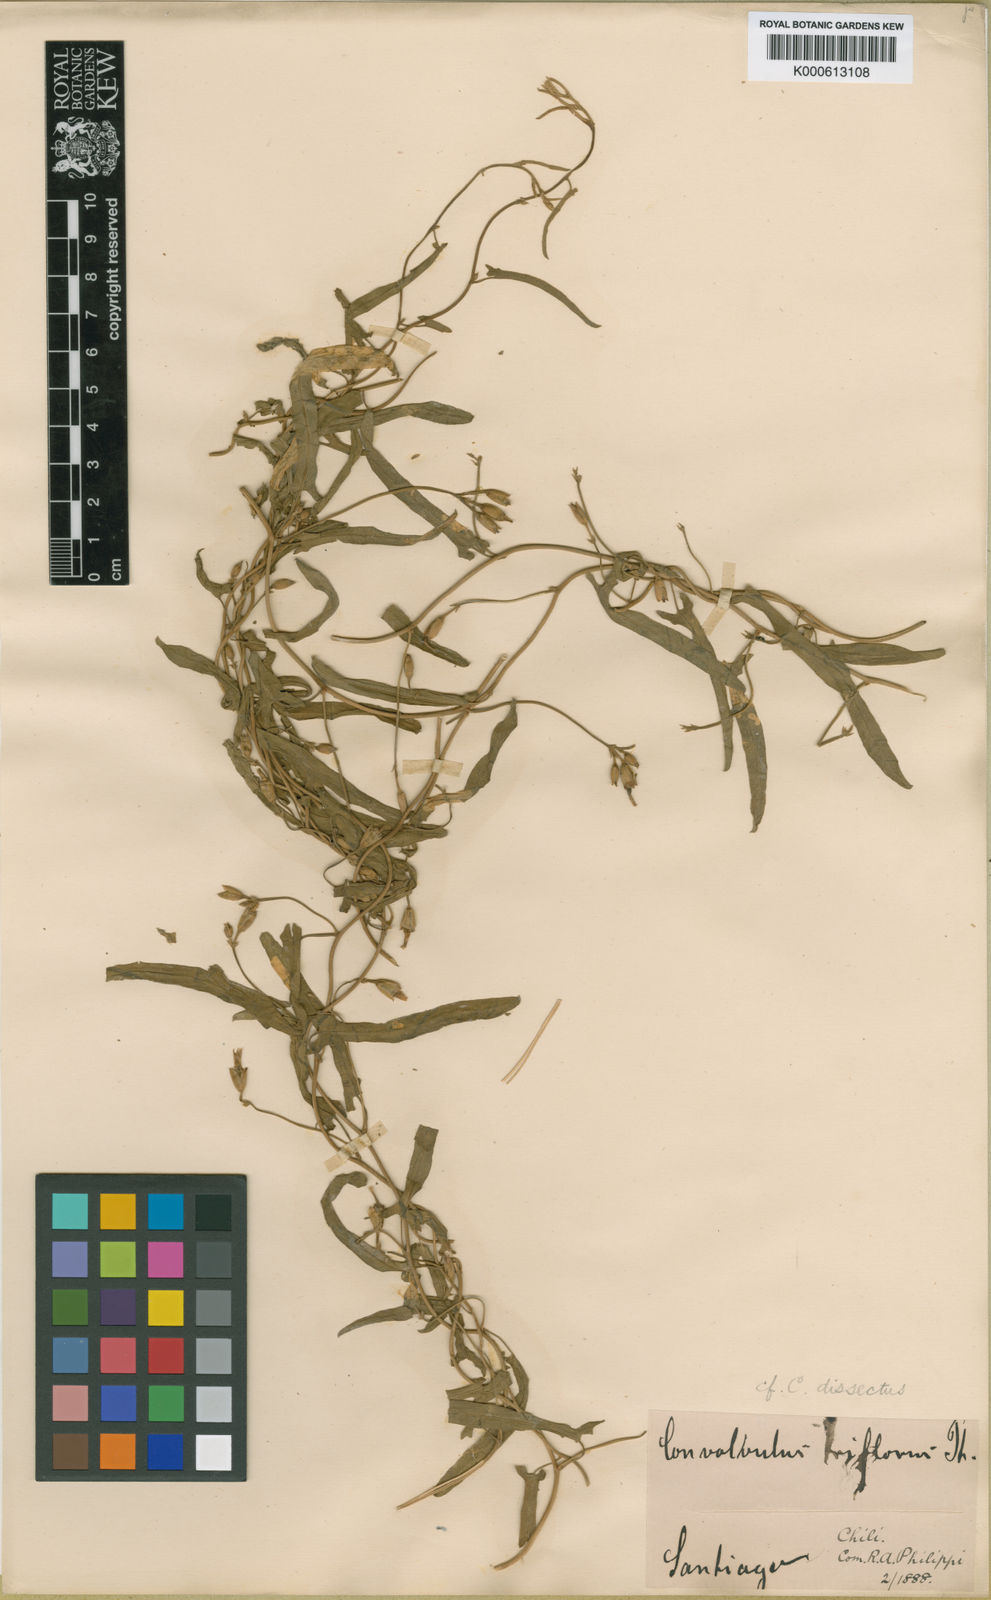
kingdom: Plantae
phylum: Tracheophyta
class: Magnoliopsida
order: Solanales
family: Convolvulaceae
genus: Distimake
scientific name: Distimake dissectus
